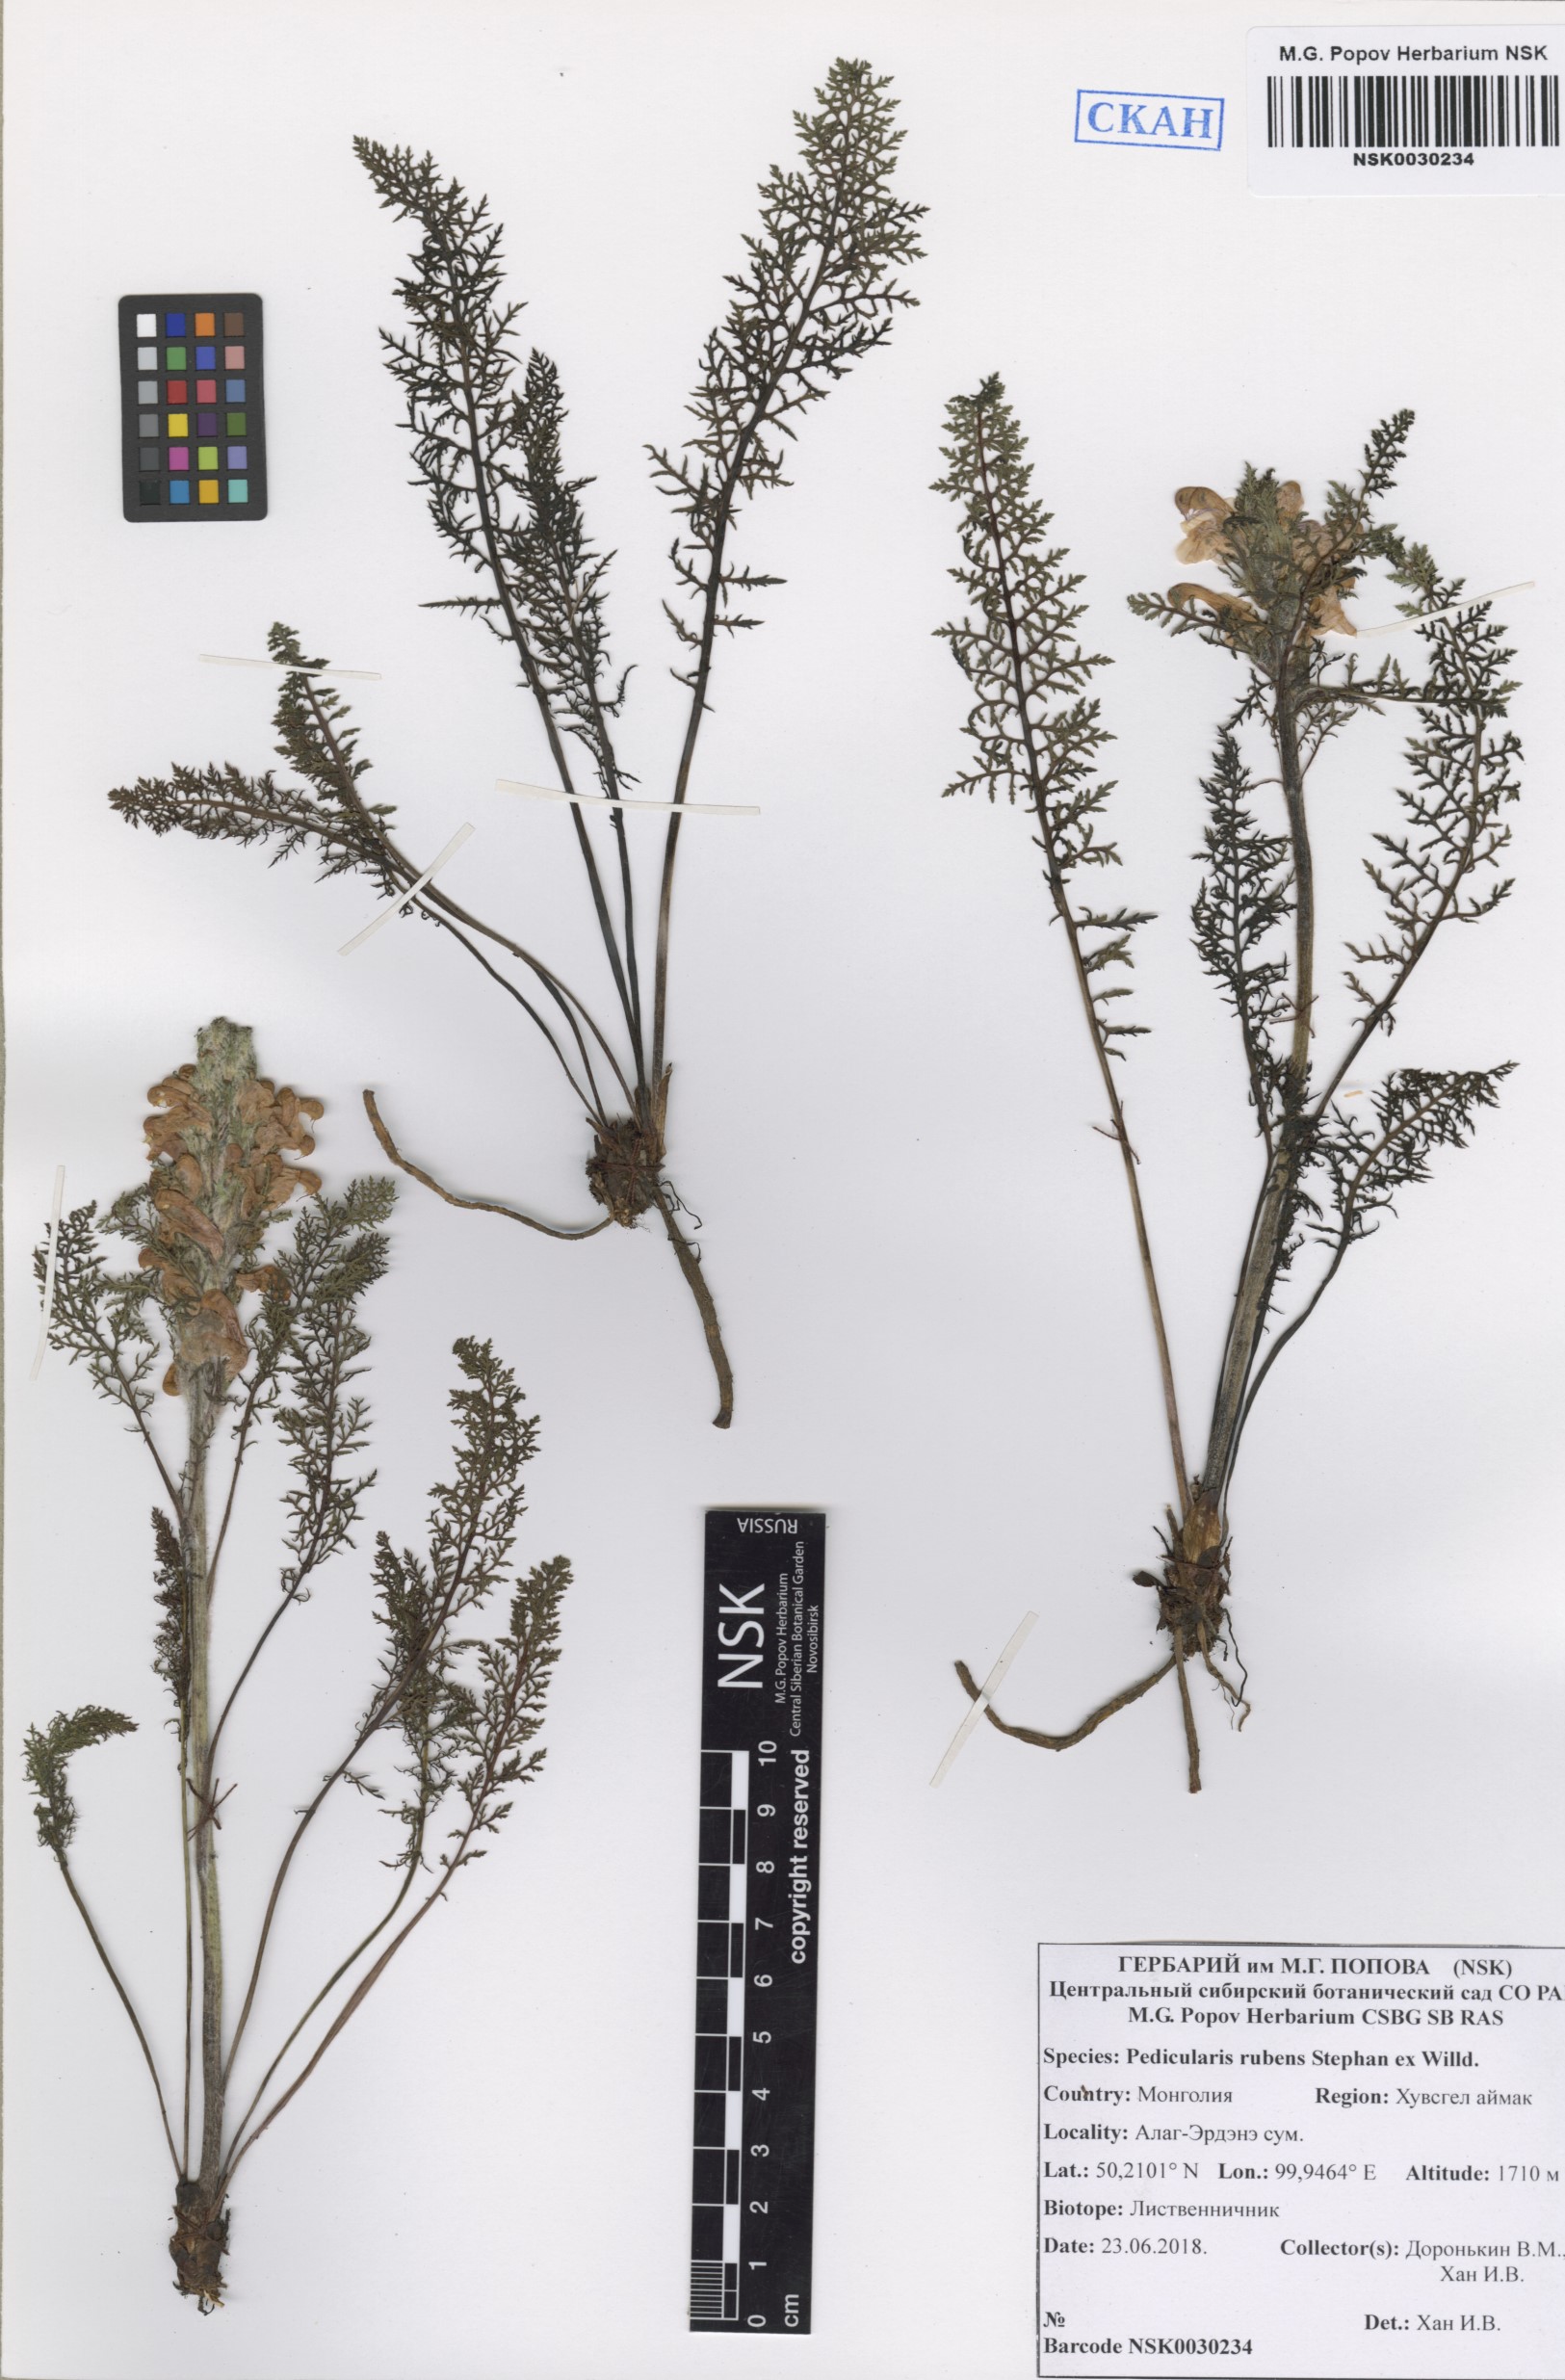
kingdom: Plantae
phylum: Tracheophyta
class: Magnoliopsida
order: Lamiales
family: Orobanchaceae
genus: Pedicularis
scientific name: Pedicularis rubens
